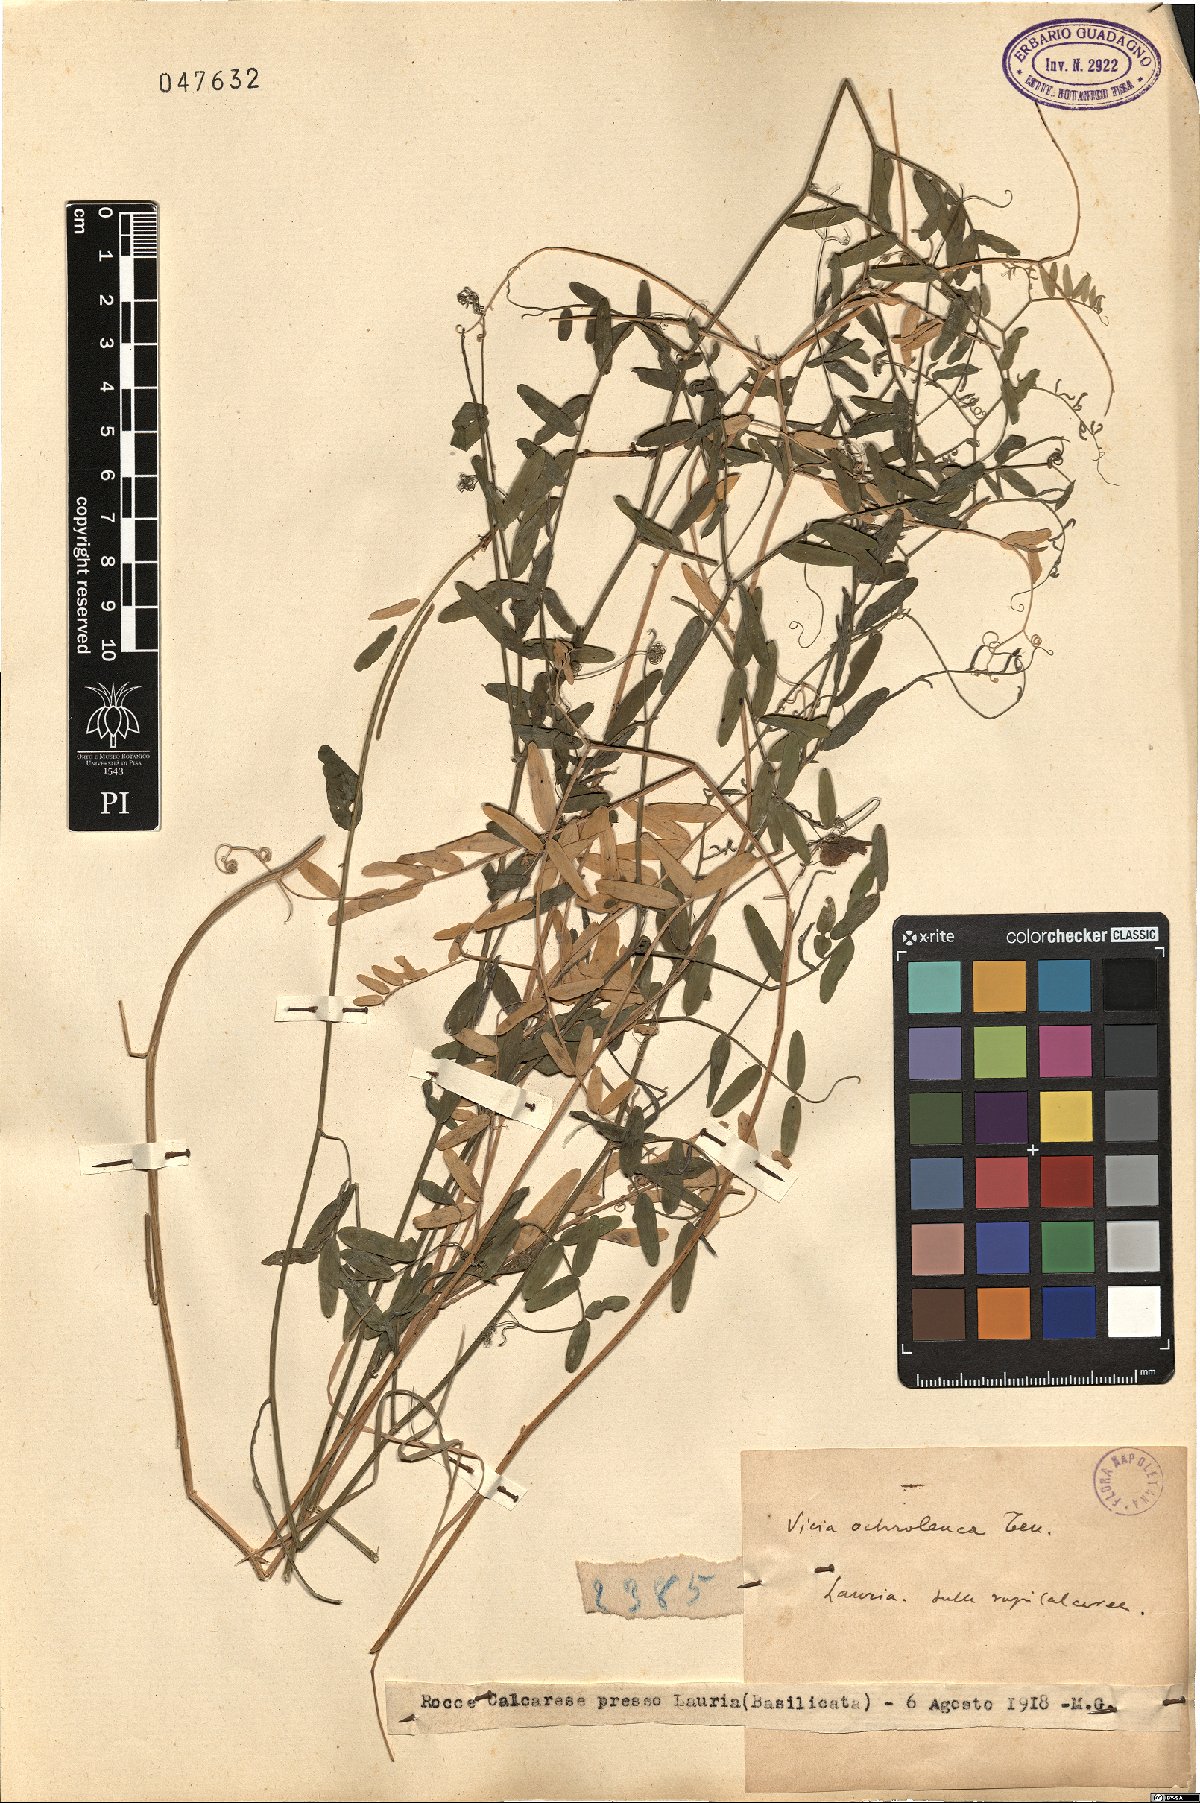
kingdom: Plantae
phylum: Tracheophyta
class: Magnoliopsida
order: Fabales
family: Fabaceae
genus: Vicia
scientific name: Vicia ochroleuca
